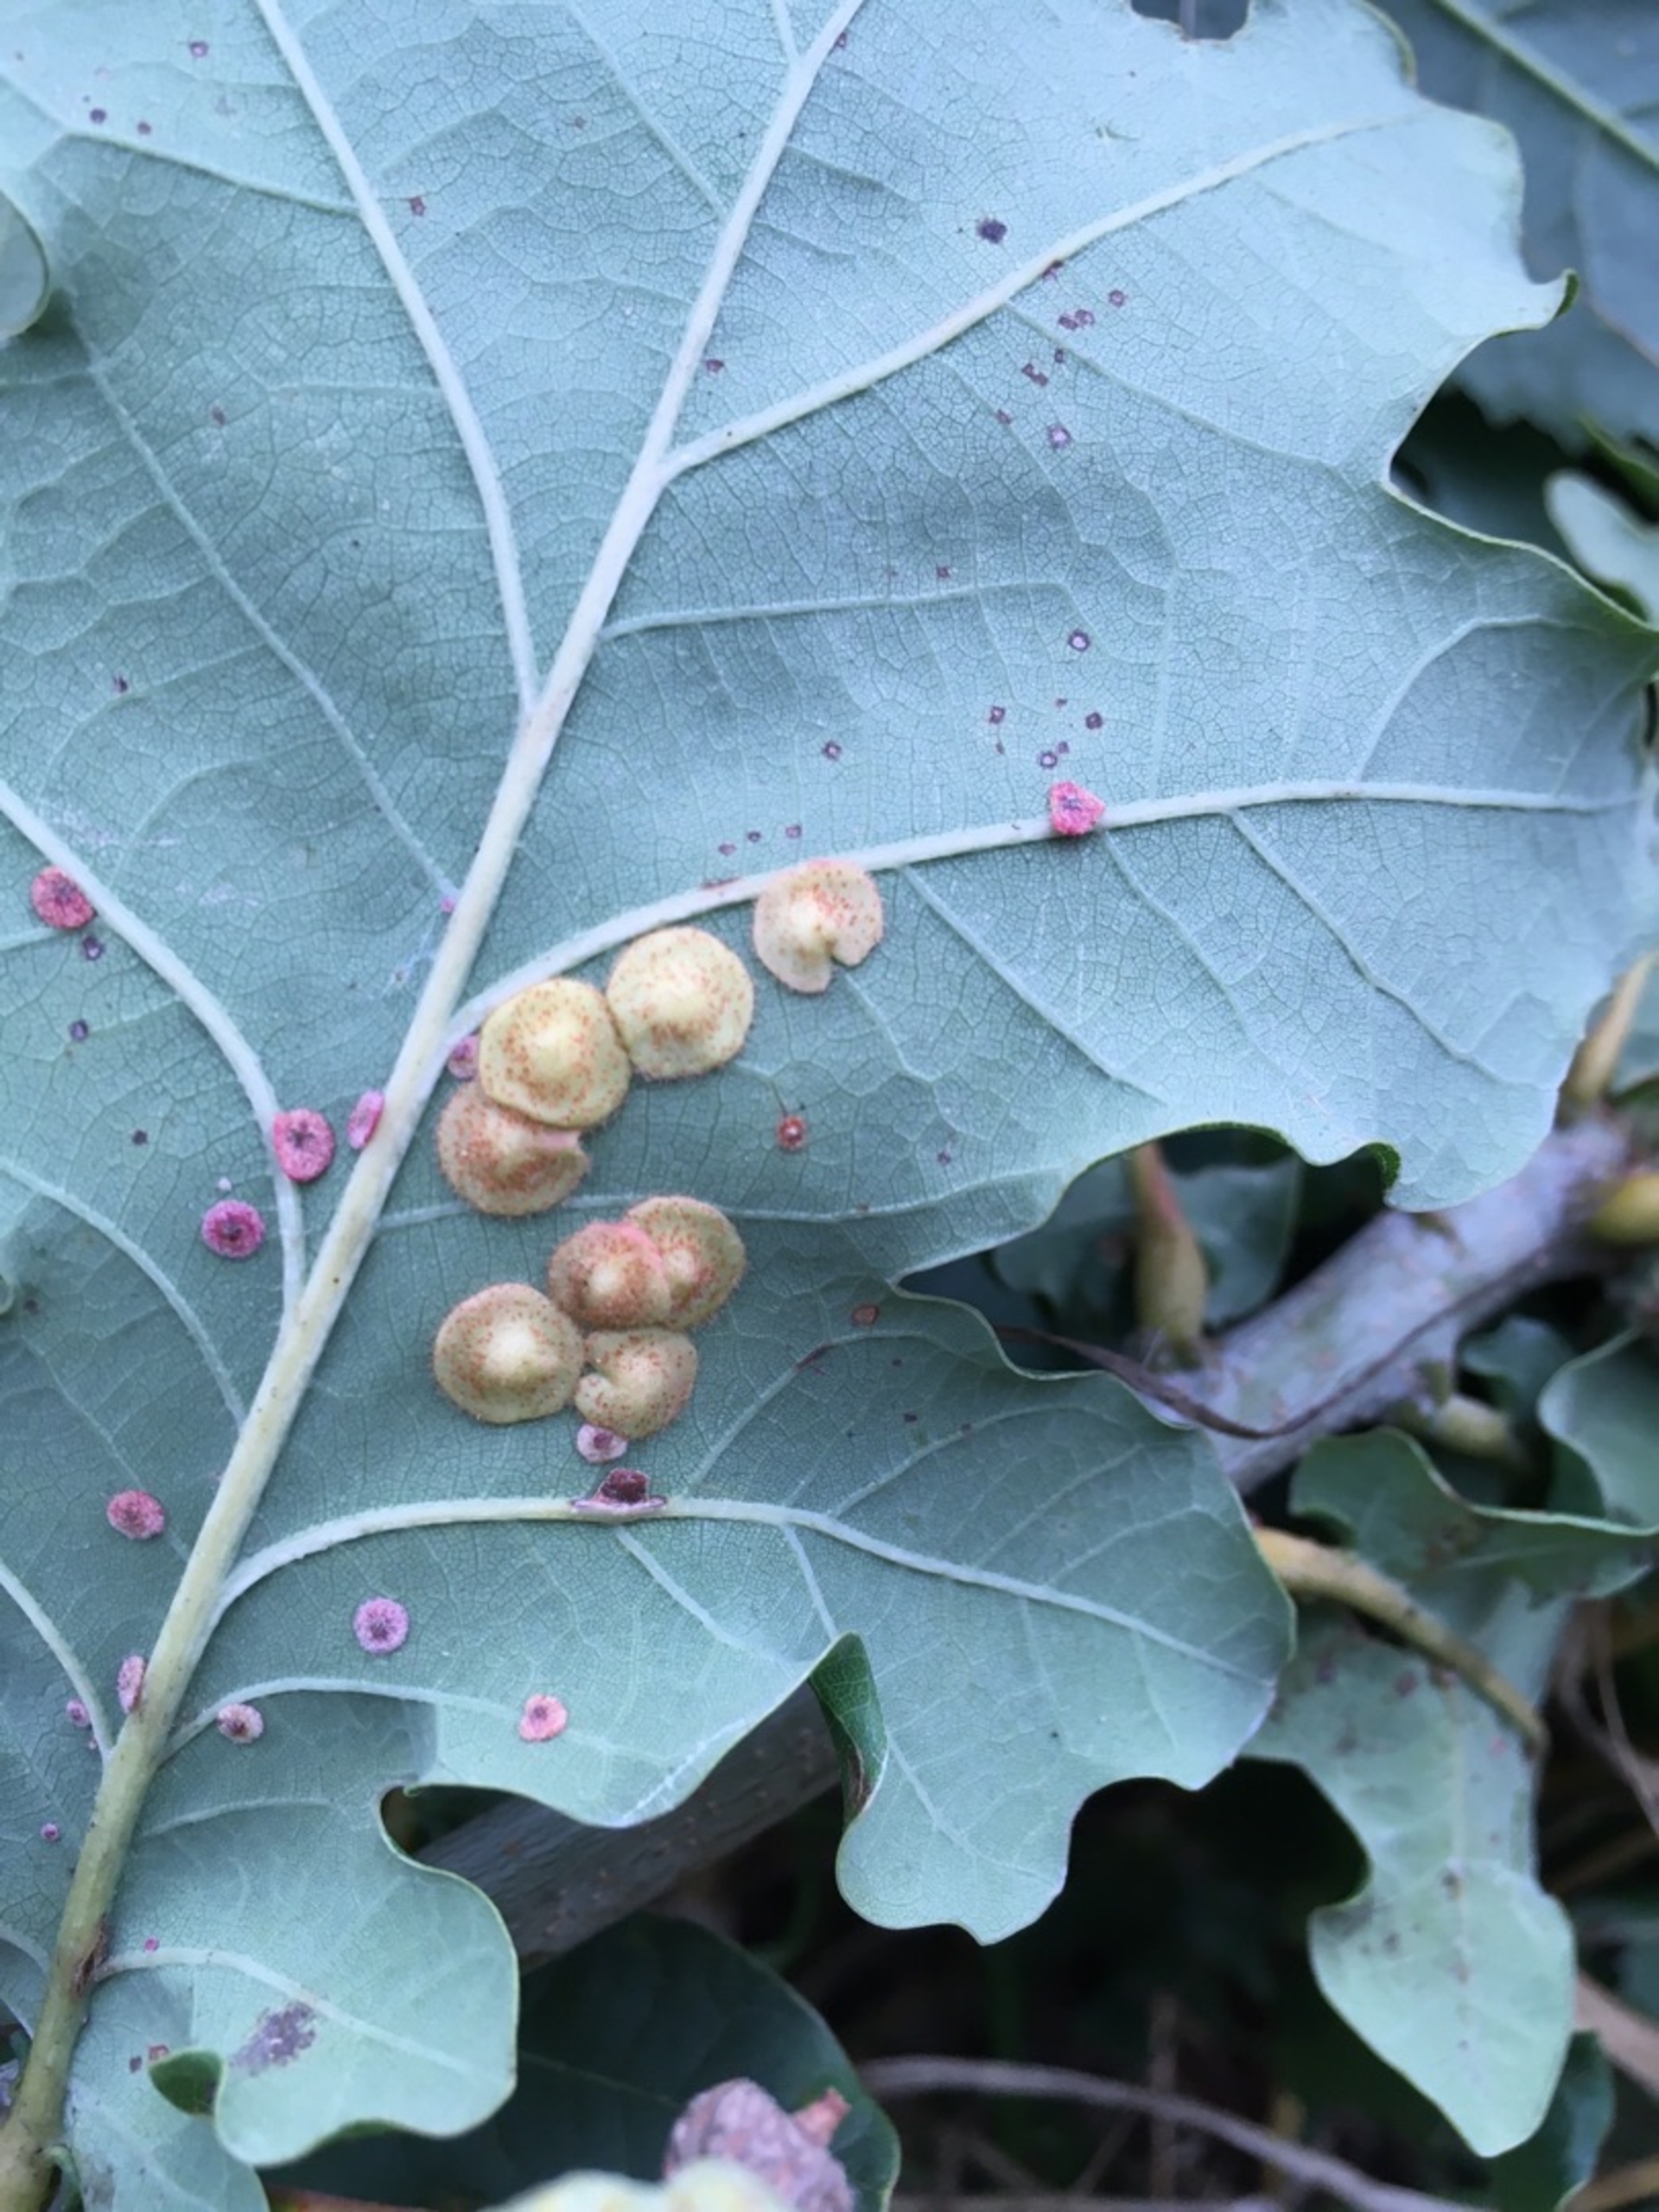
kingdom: Animalia
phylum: Arthropoda
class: Insecta
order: Hymenoptera
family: Cynipidae
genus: Neuroterus
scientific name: Neuroterus quercusbaccarum
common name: Linsegalhveps
